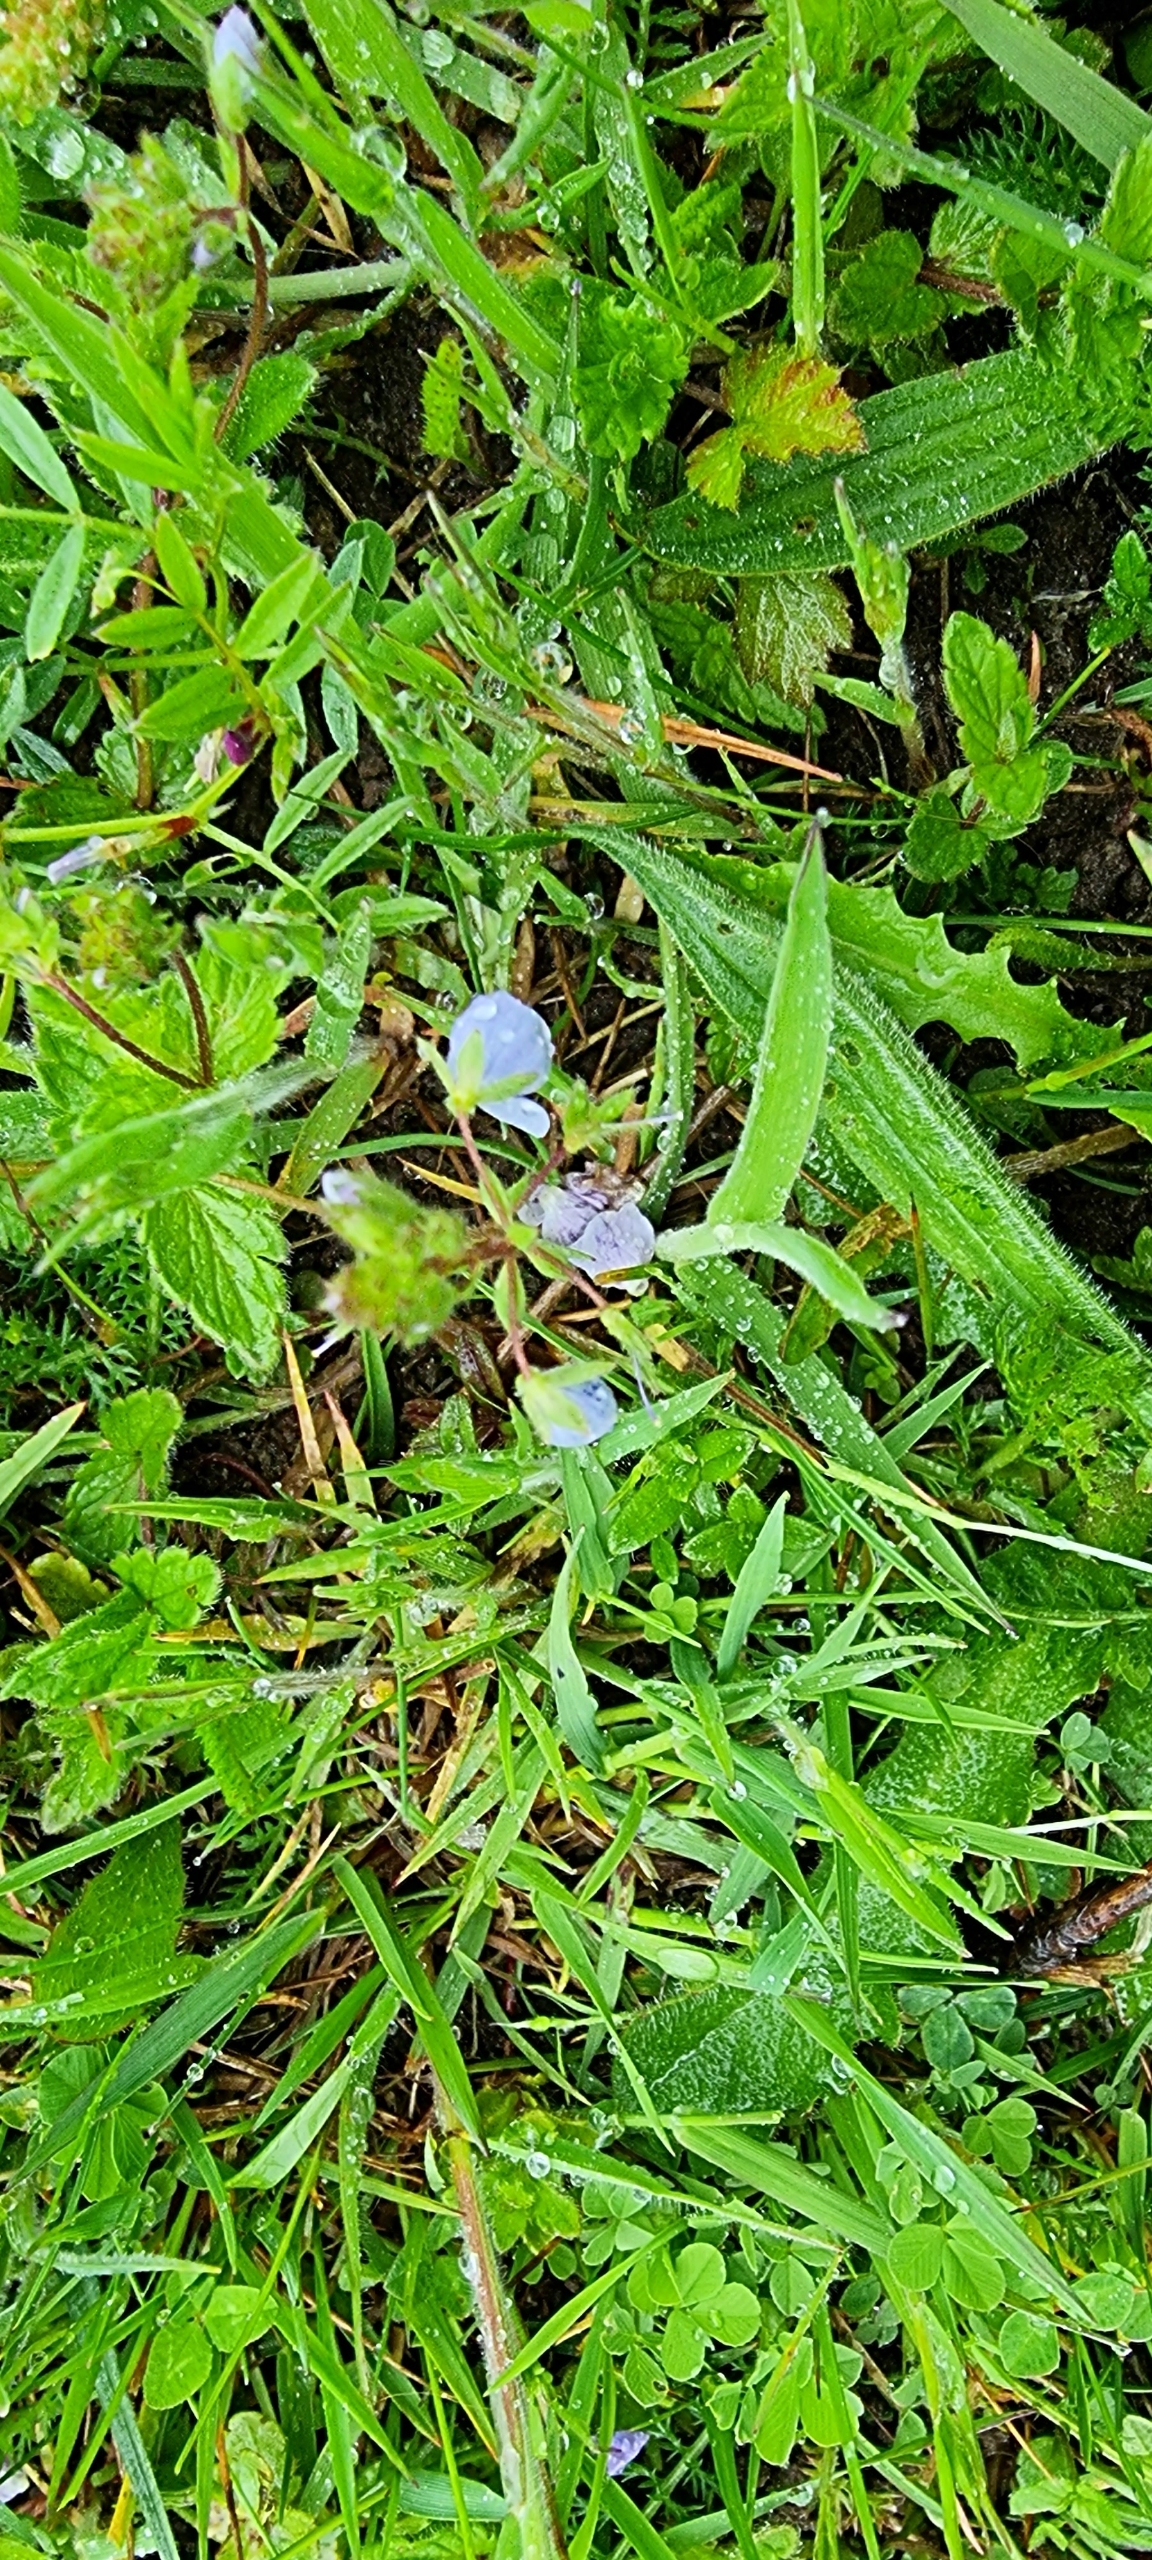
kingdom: Plantae
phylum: Tracheophyta
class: Magnoliopsida
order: Lamiales
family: Plantaginaceae
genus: Veronica
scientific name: Veronica chamaedrys
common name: Tveskægget ærenpris
